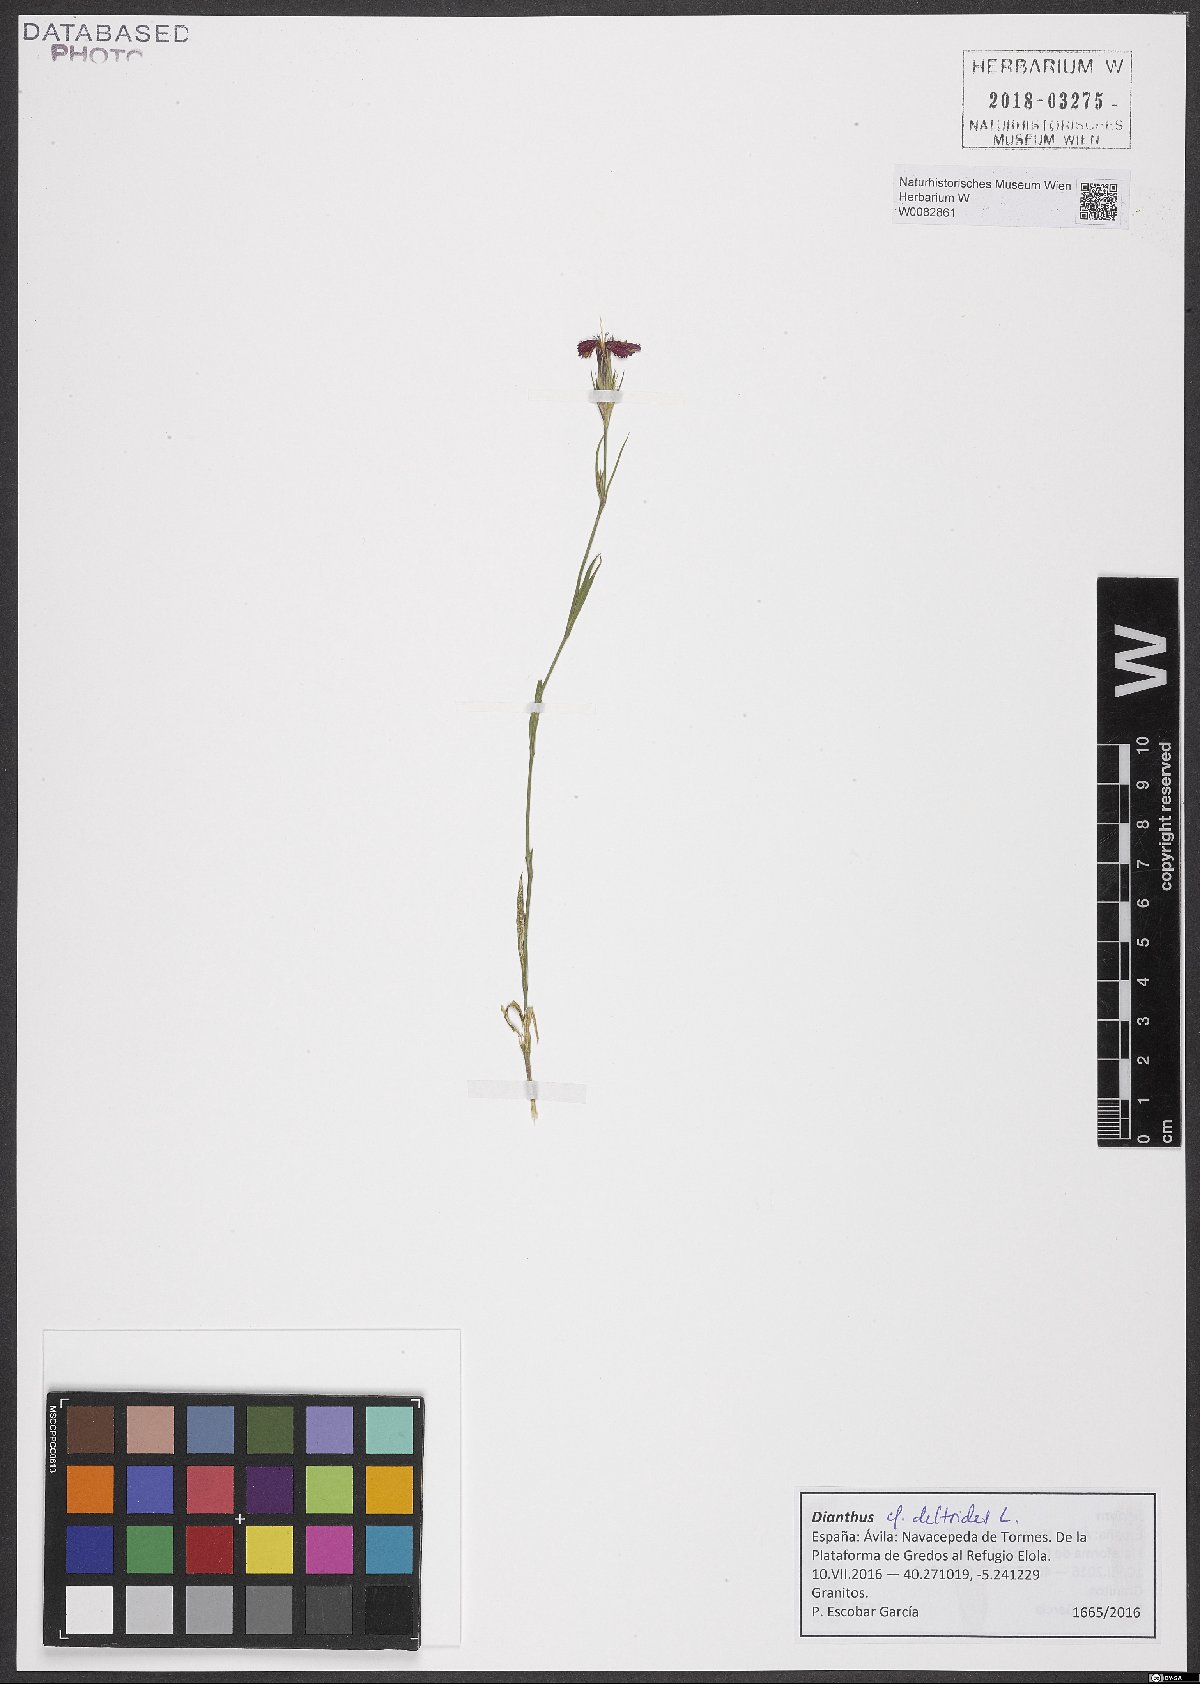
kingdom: Plantae
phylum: Tracheophyta
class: Magnoliopsida
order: Caryophyllales
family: Caryophyllaceae
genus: Dianthus
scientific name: Dianthus deltoides
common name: Maiden pink
